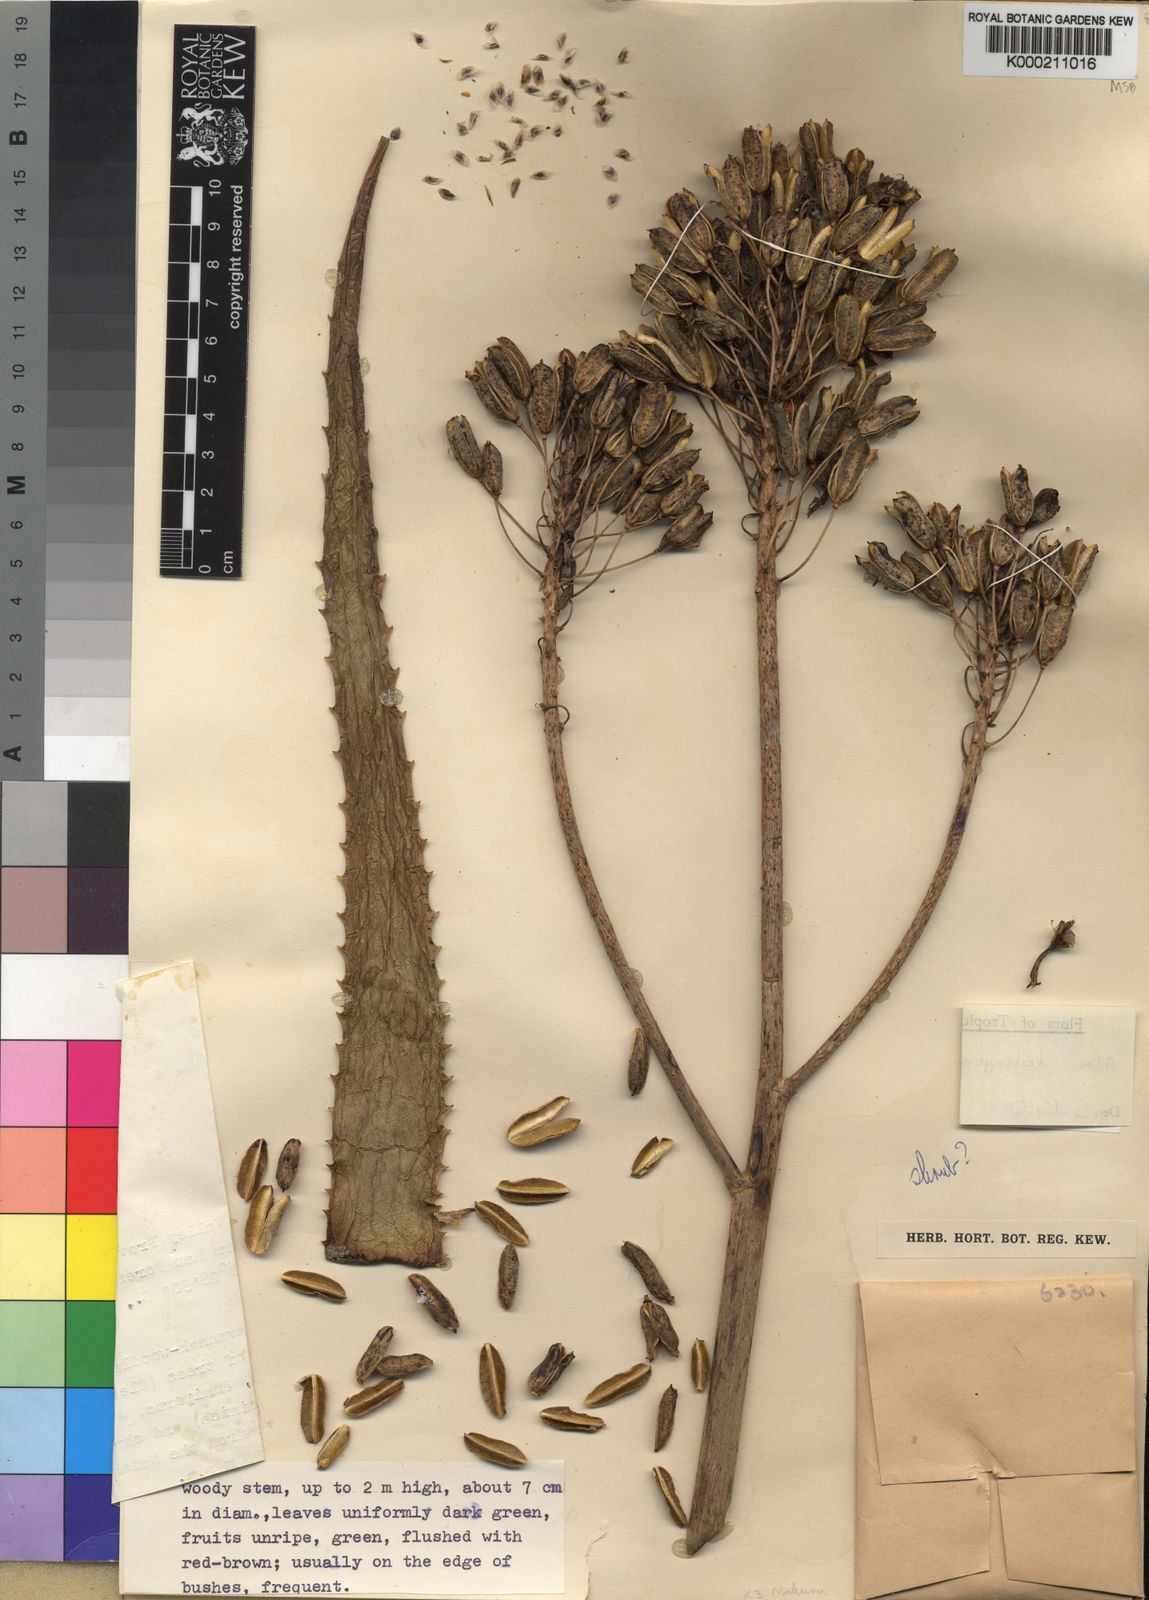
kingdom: Plantae
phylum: Tracheophyta
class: Liliopsida
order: Asparagales
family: Asphodelaceae
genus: Aloe
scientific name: Aloe kedongensis
